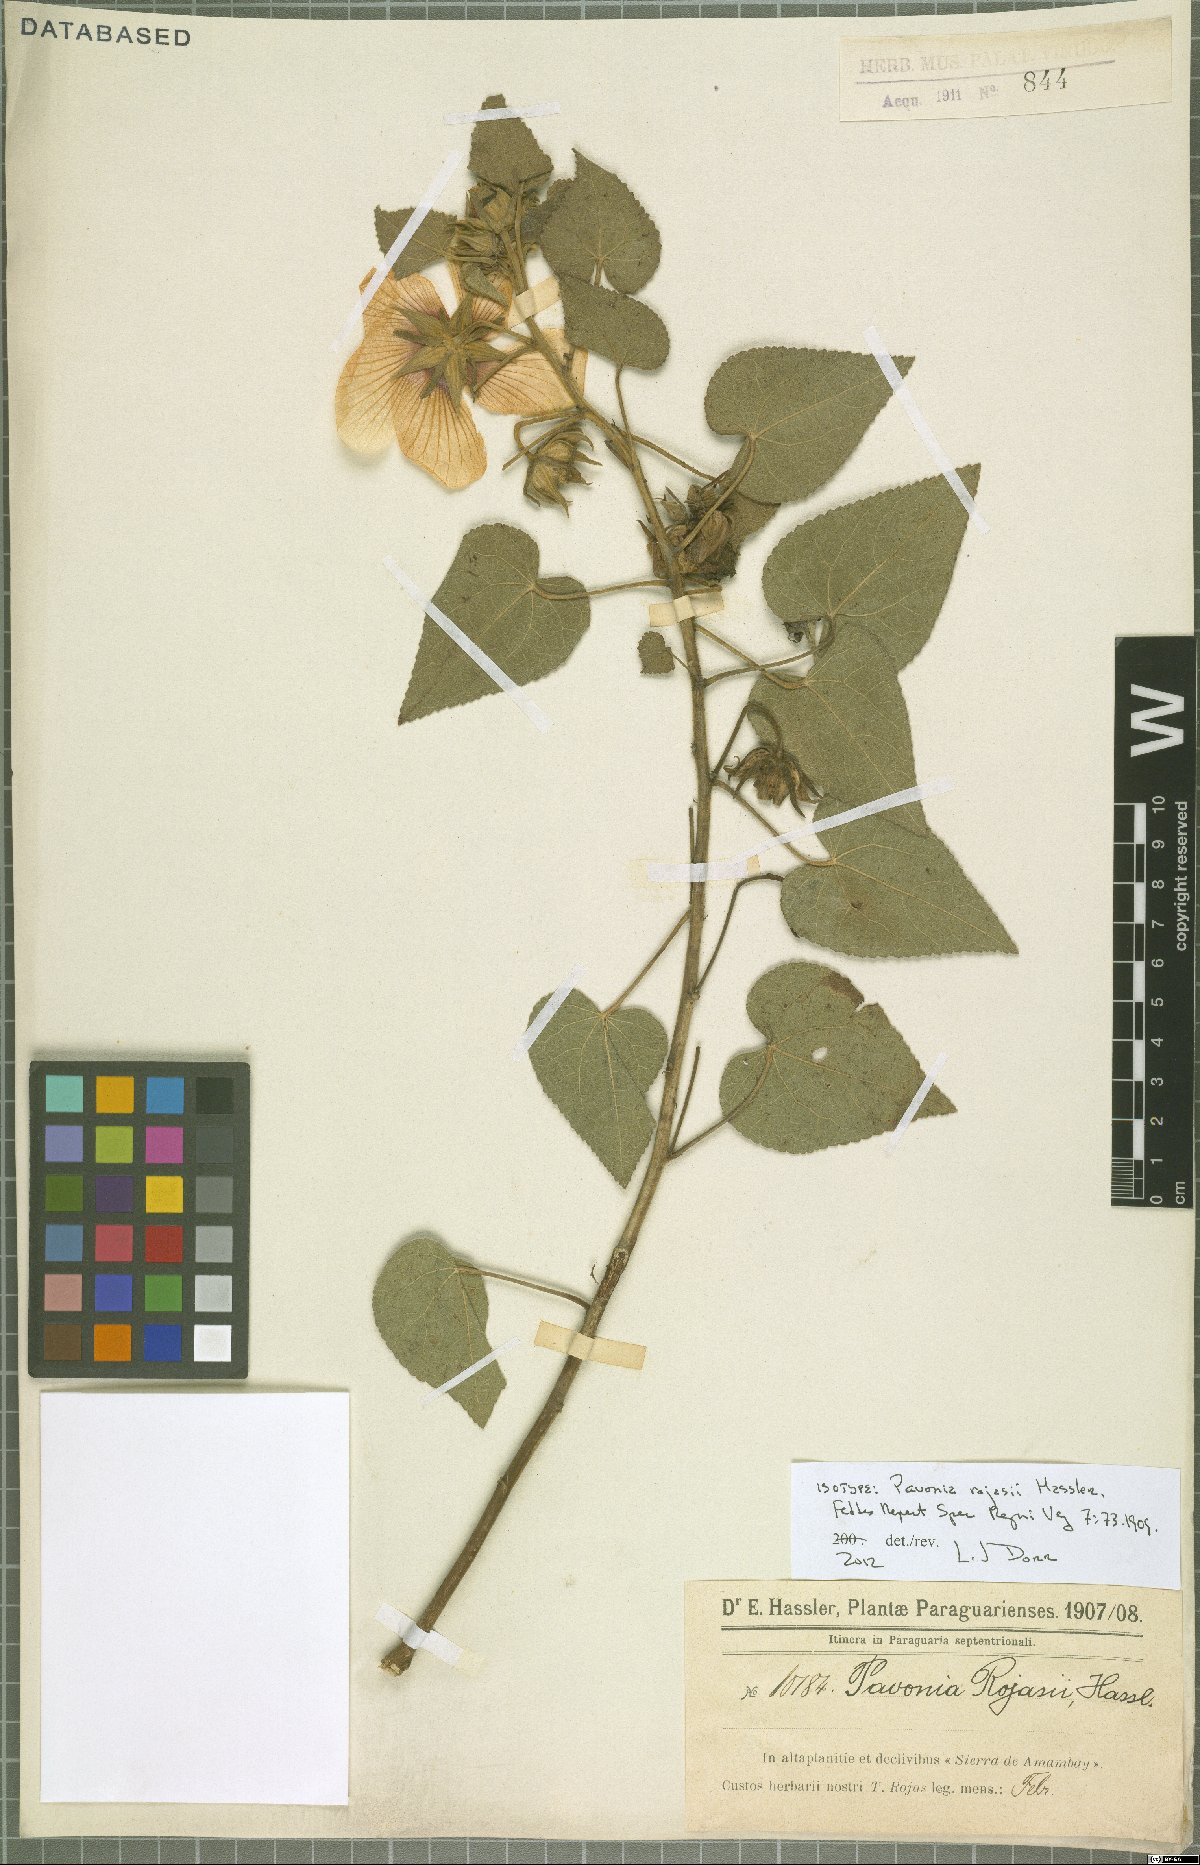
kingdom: Plantae
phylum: Tracheophyta
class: Magnoliopsida
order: Malvales
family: Malvaceae
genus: Pavonia
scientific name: Pavonia rojasii
